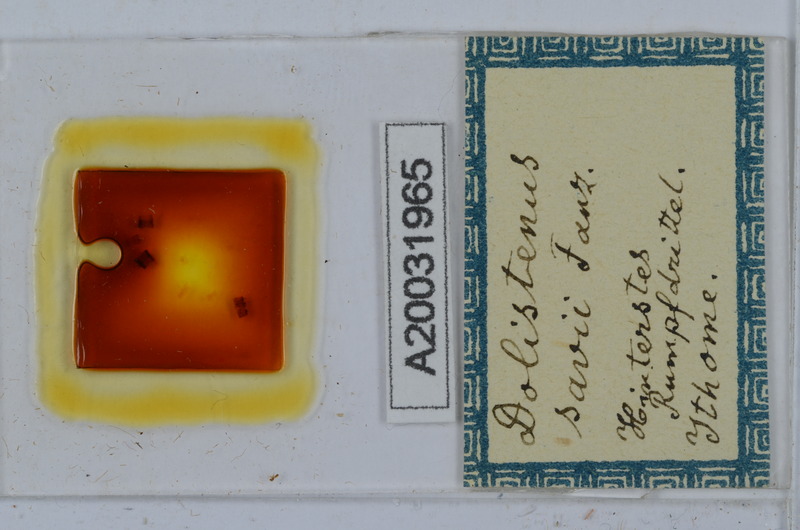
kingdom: Animalia
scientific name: Animalia
